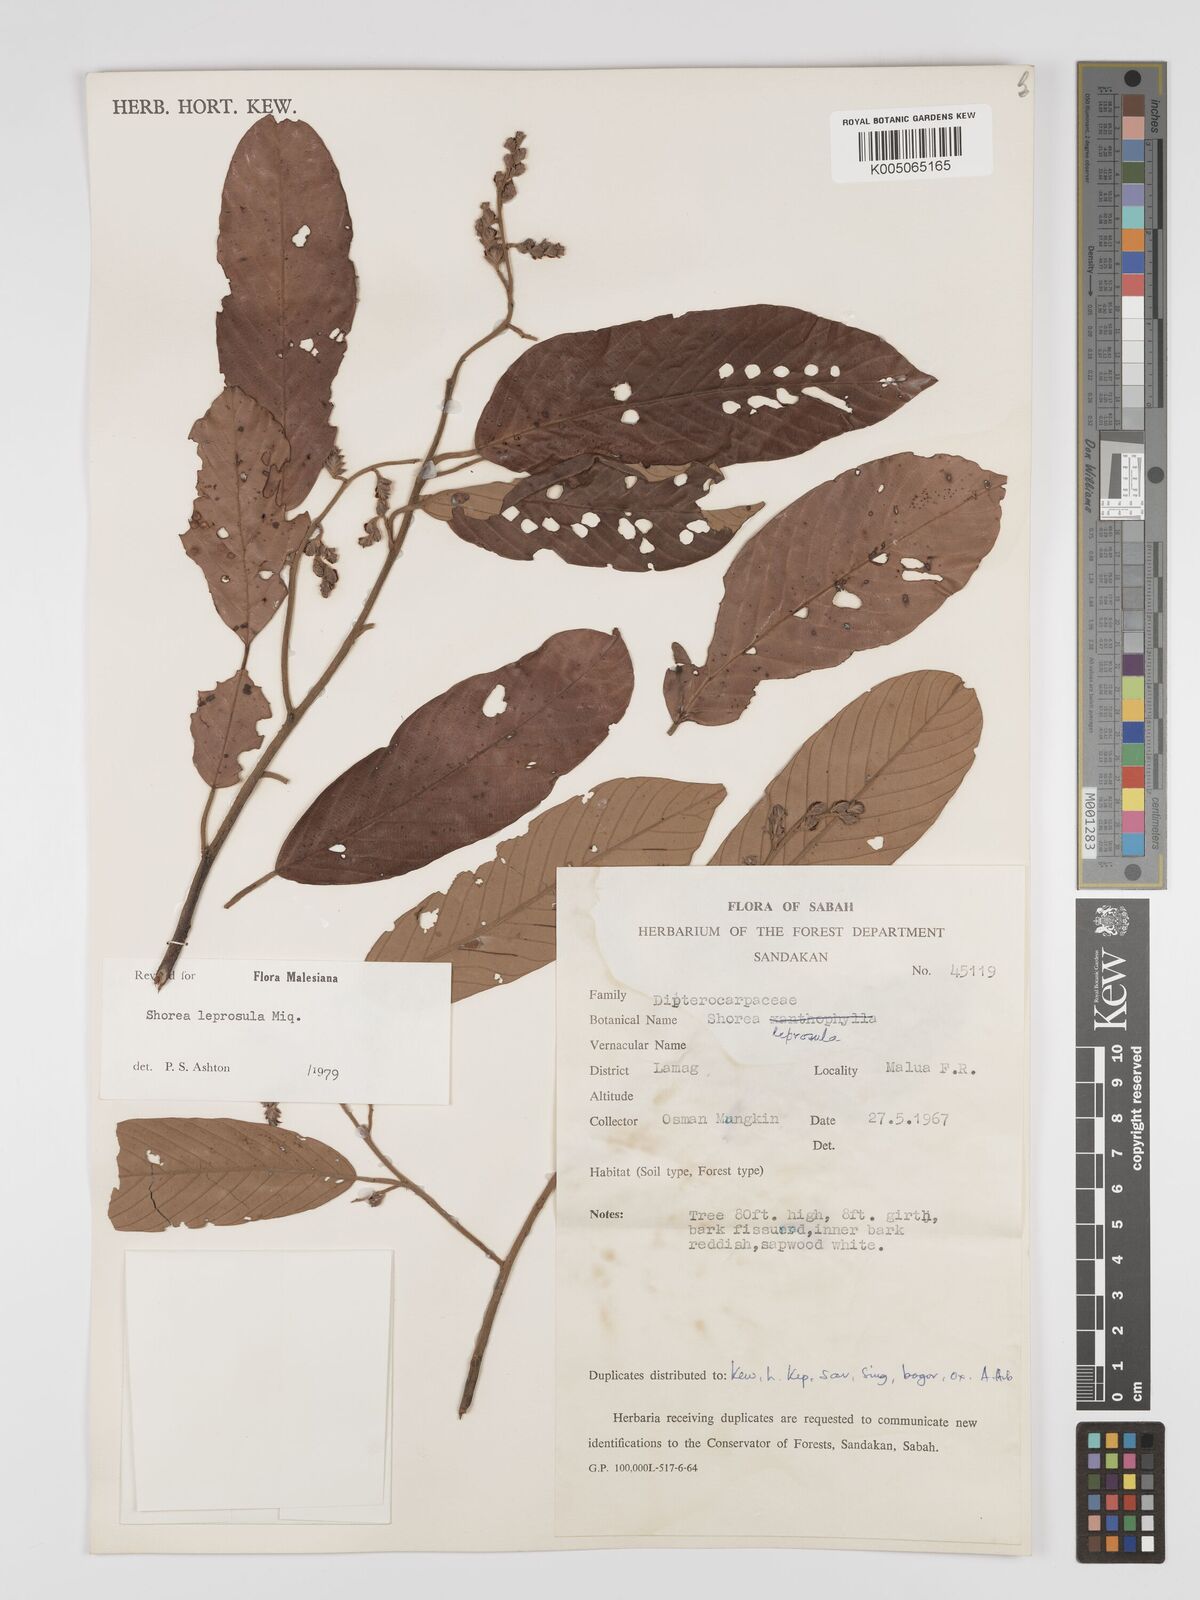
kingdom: Plantae
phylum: Tracheophyta
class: Magnoliopsida
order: Malvales
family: Dipterocarpaceae
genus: Shorea
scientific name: Shorea leprosula
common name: Light red meranti
